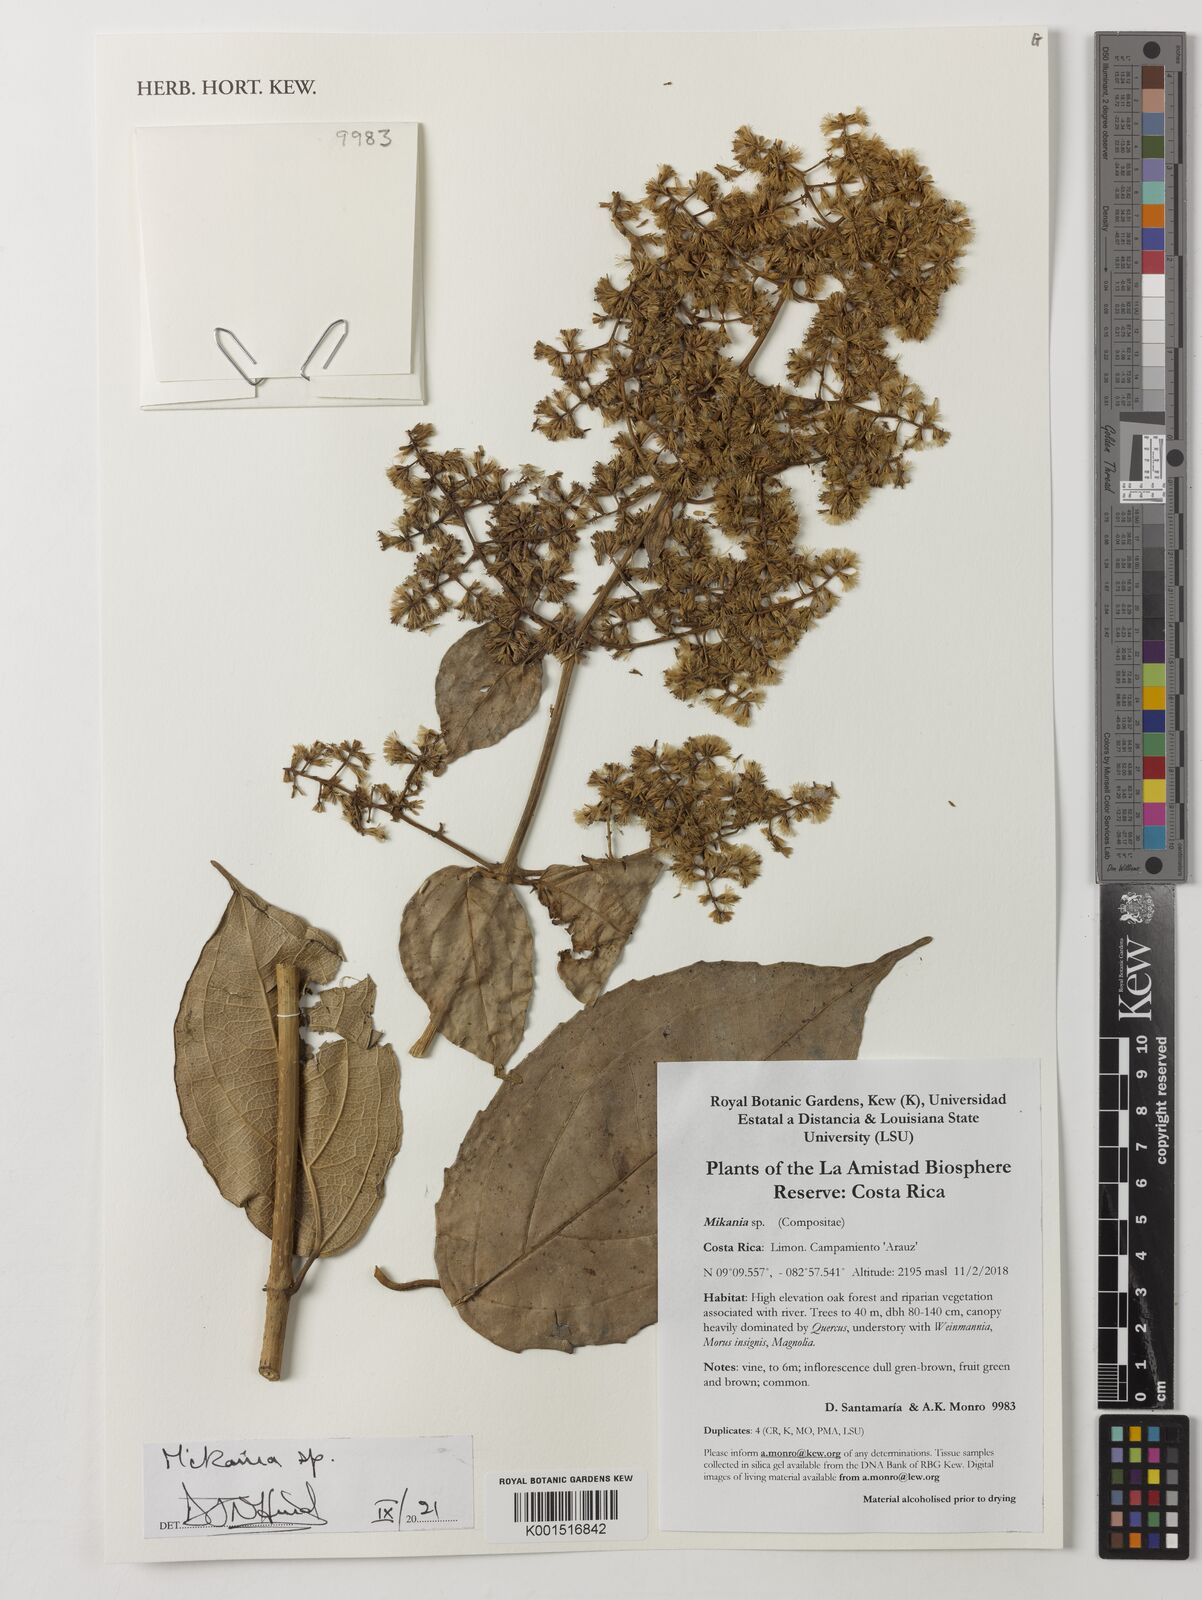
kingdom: Plantae
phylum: Tracheophyta
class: Magnoliopsida
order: Asterales
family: Asteraceae
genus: Mikania
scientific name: Mikania
